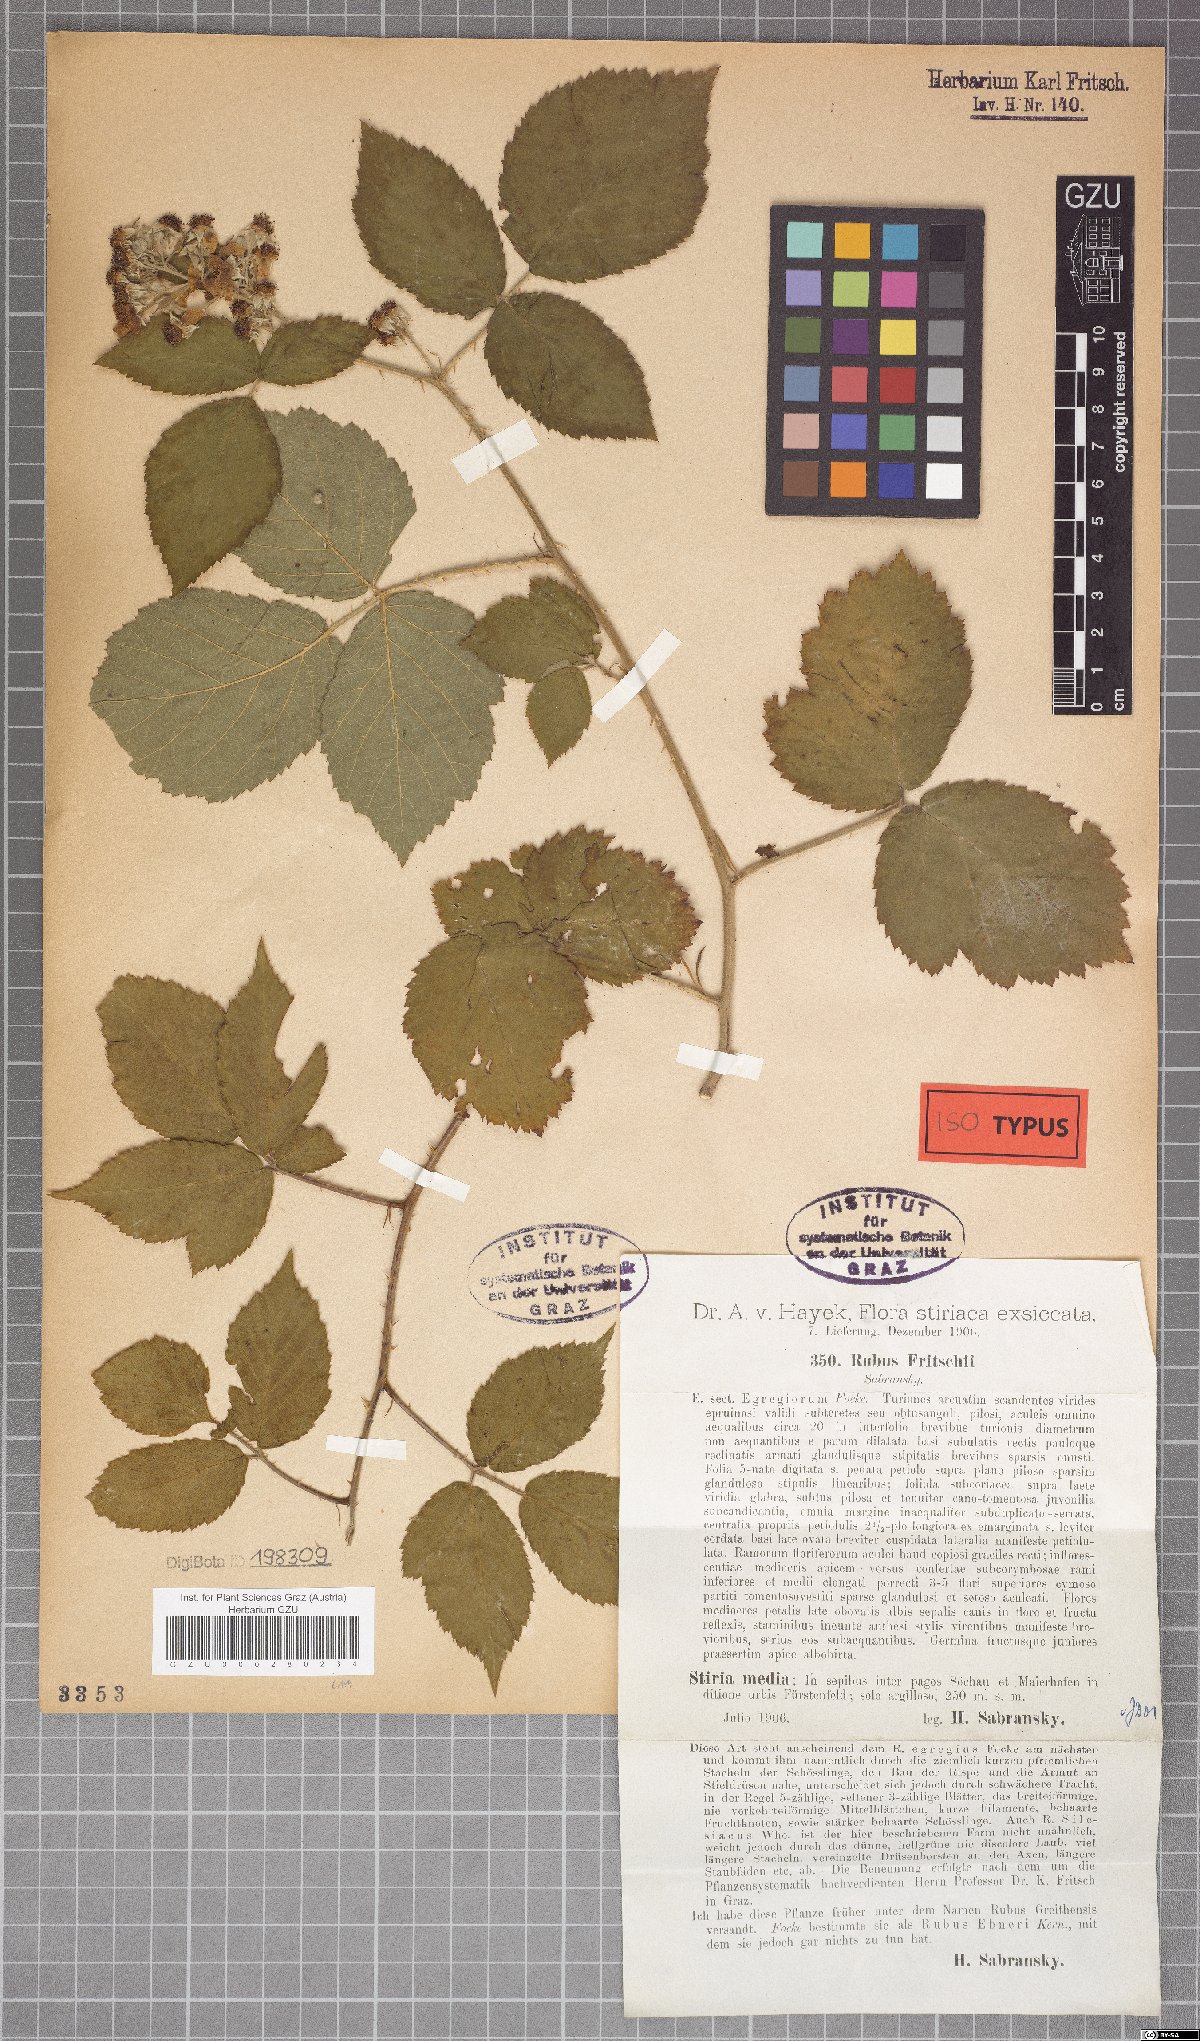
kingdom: Plantae
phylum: Tracheophyta
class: Magnoliopsida
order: Rosales
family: Rosaceae
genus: Rubus
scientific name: Rubus fritschii
